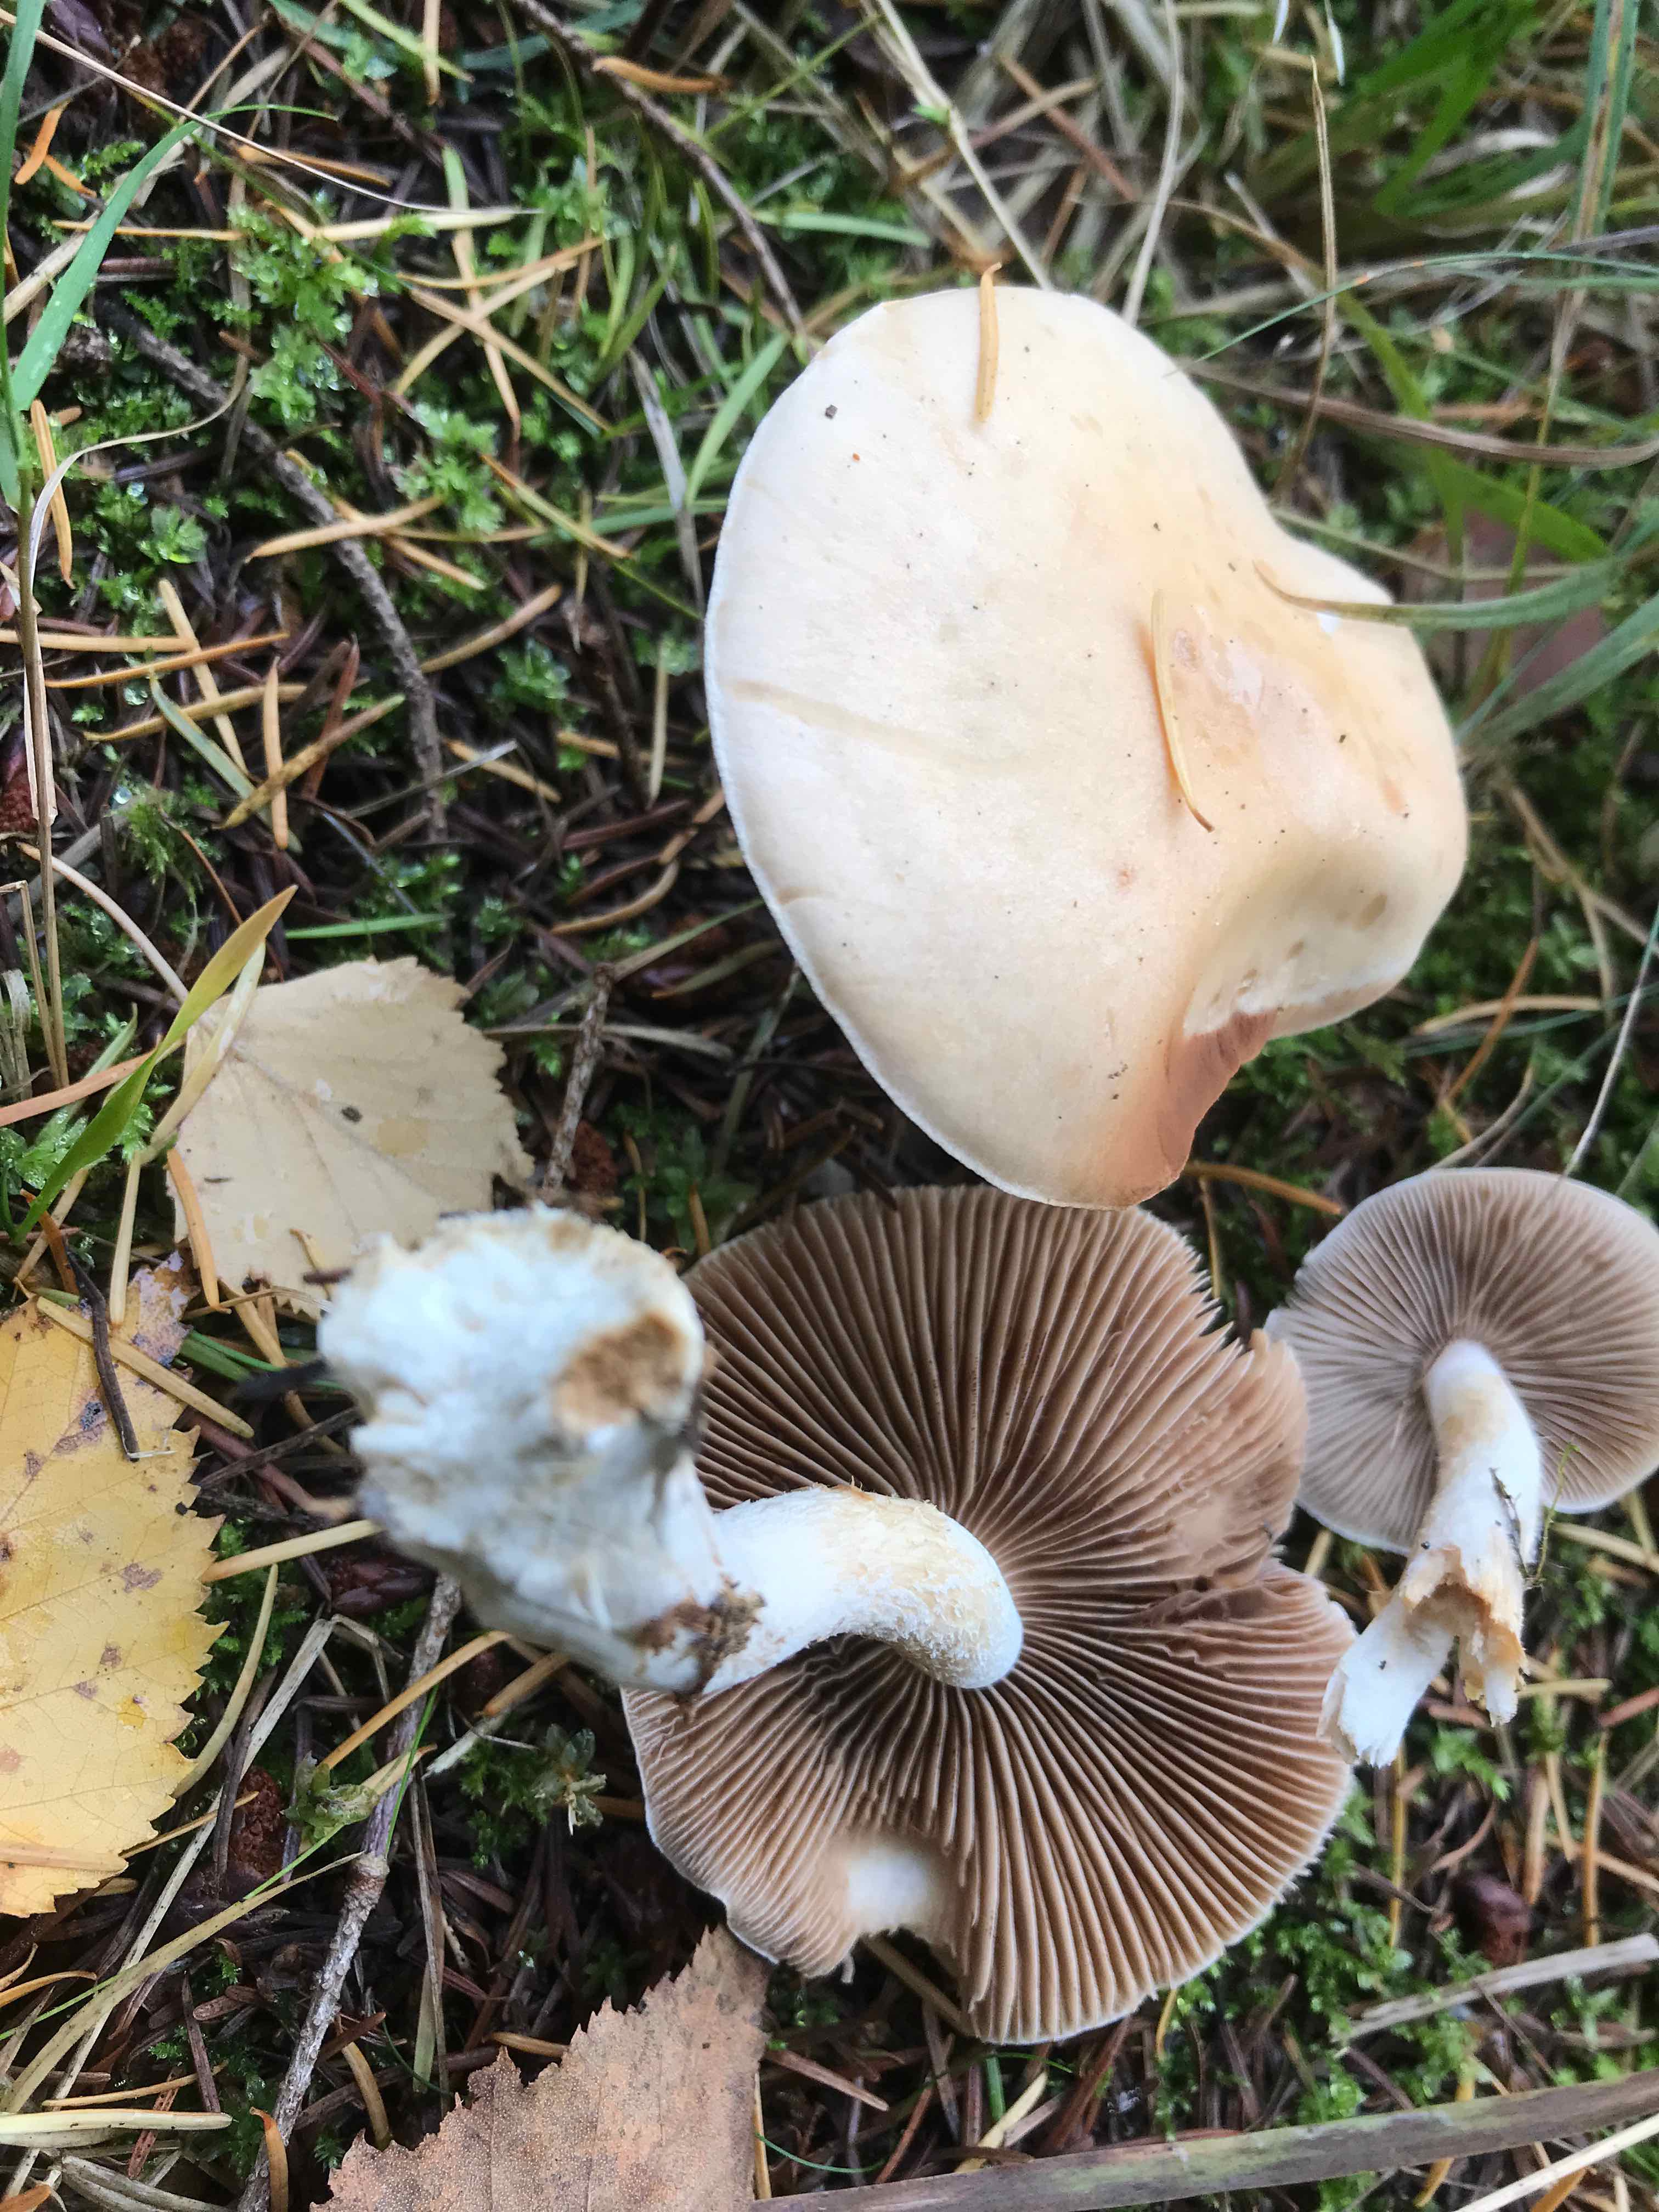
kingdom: Fungi
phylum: Basidiomycota
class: Agaricomycetes
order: Agaricales
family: Hymenogastraceae
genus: Hebeloma
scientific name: Hebeloma
